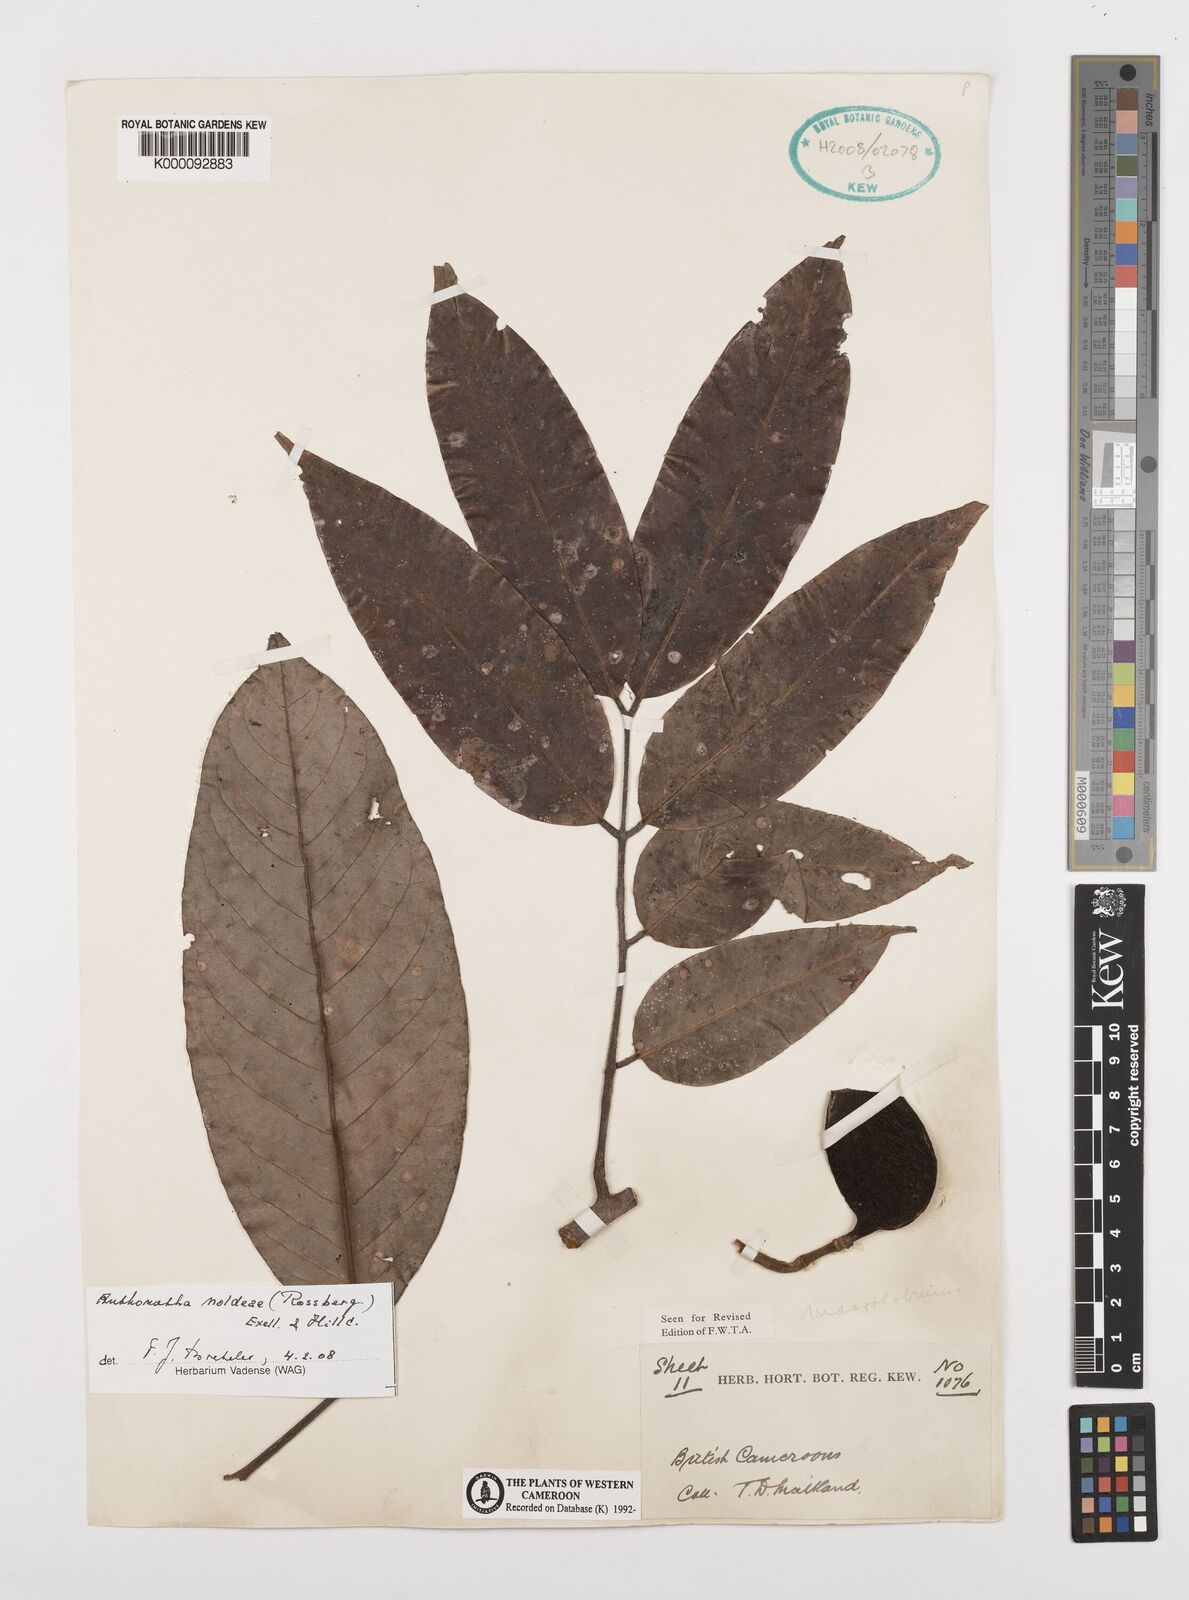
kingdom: Plantae
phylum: Tracheophyta
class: Magnoliopsida
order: Fabales
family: Fabaceae
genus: Anthonotha
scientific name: Anthonotha
